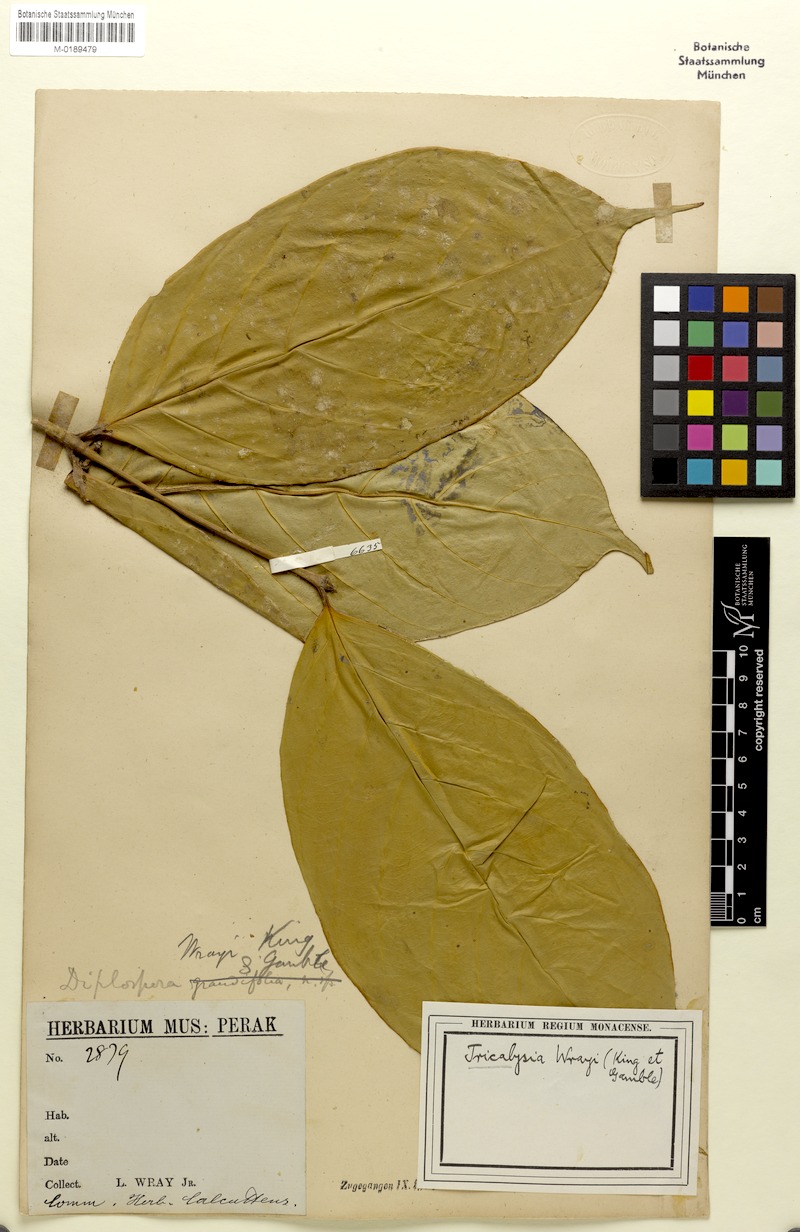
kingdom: Plantae
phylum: Tracheophyta
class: Magnoliopsida
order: Gentianales
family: Rubiaceae
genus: Diplospora
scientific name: Diplospora wrayi
